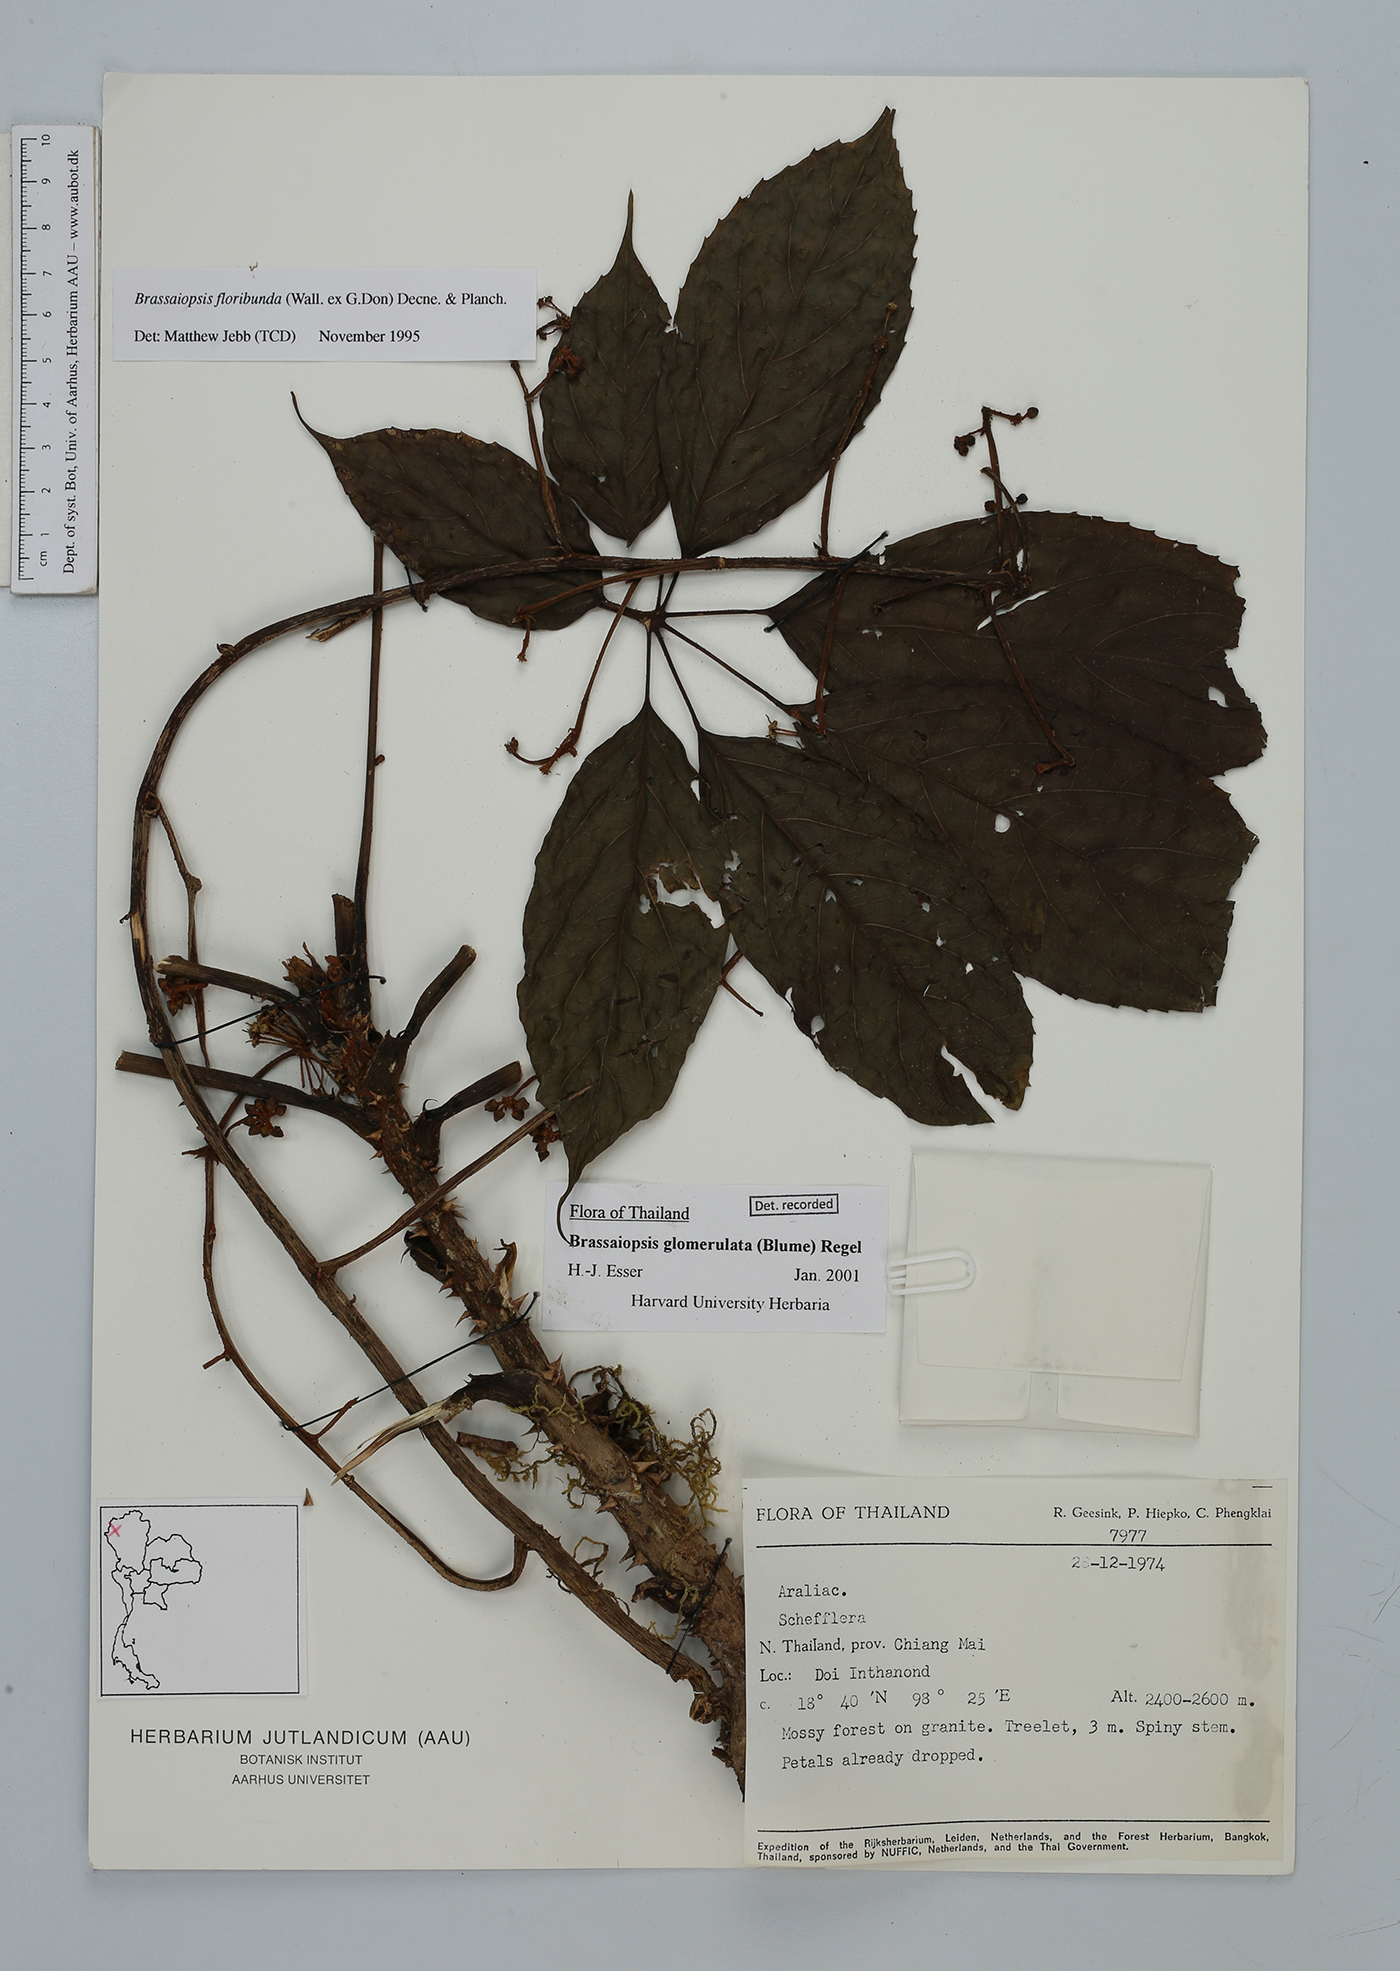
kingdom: Plantae
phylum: Tracheophyta
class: Magnoliopsida
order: Apiales
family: Araliaceae
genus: Brassaiopsis
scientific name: Brassaiopsis glomerulata
